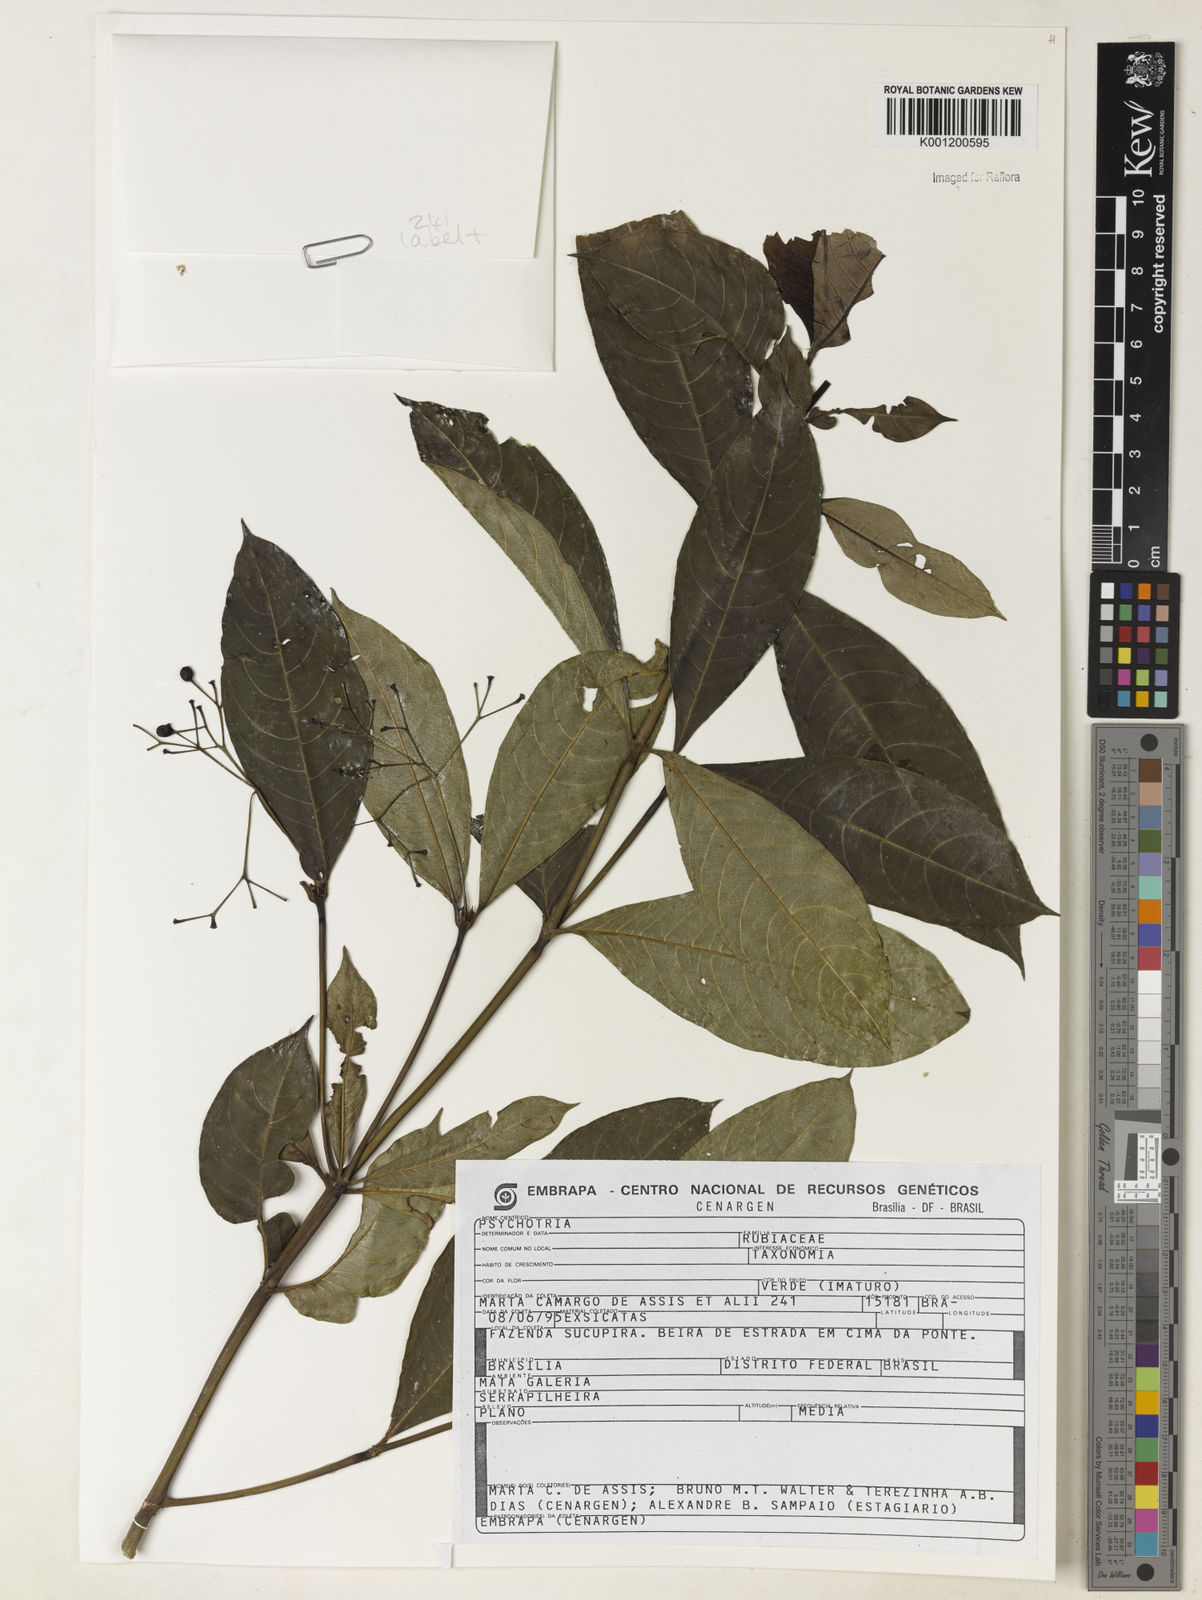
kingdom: Plantae
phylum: Tracheophyta
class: Magnoliopsida
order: Gentianales
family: Rubiaceae
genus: Psychotria
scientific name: Psychotria
